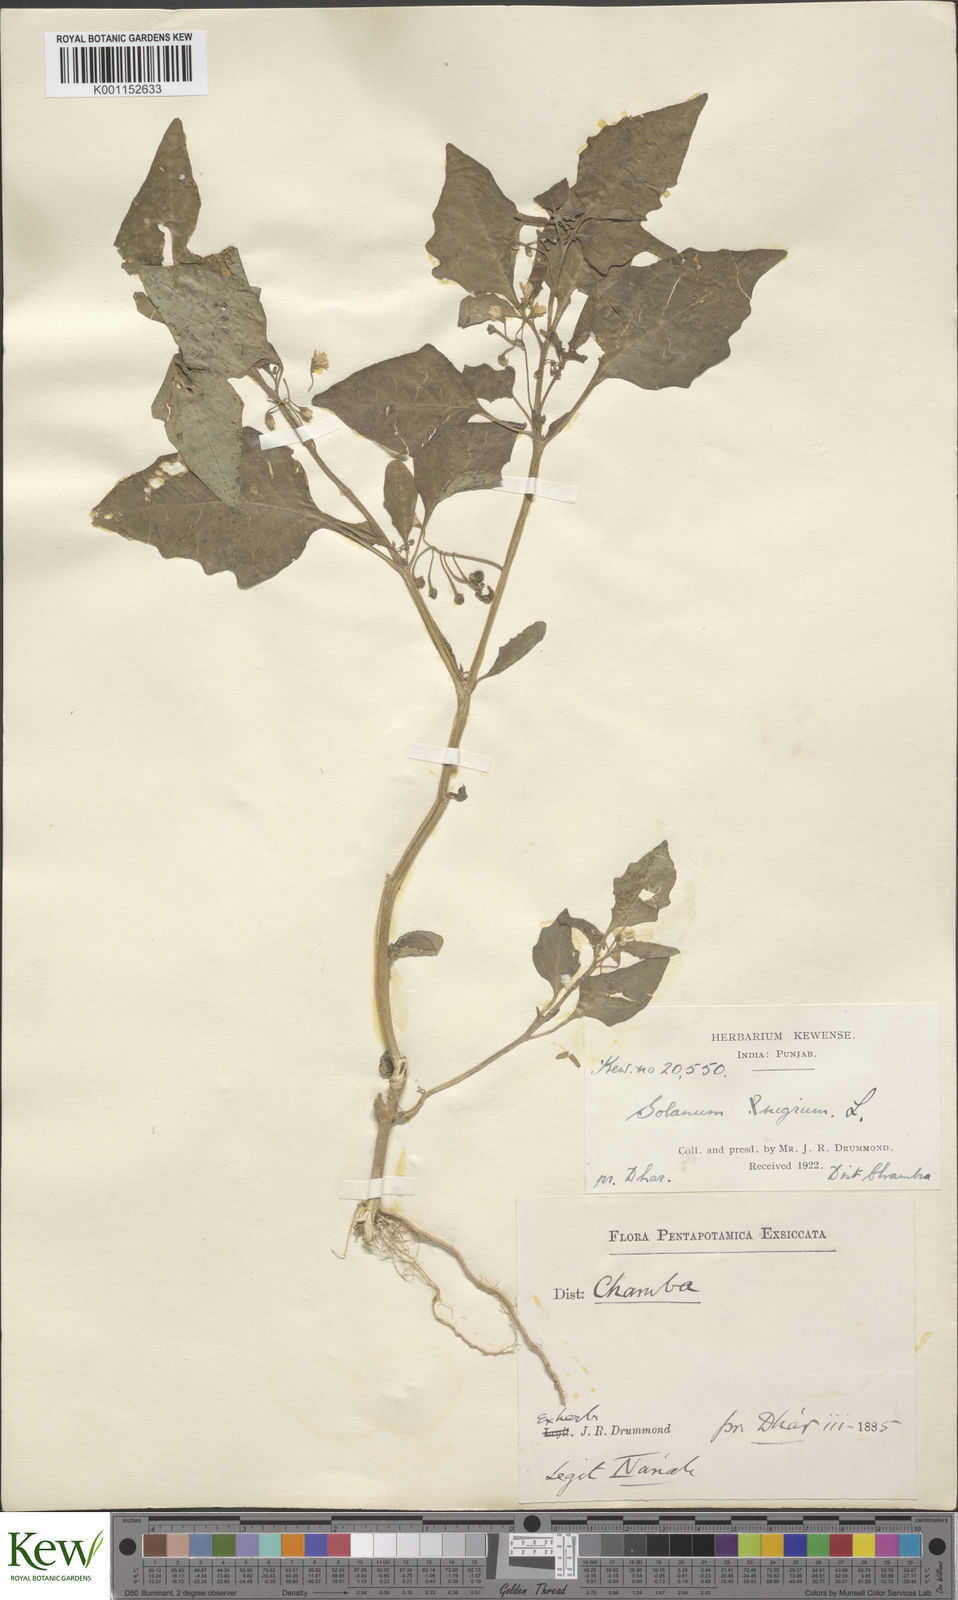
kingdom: Plantae
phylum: Tracheophyta
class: Magnoliopsida
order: Solanales
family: Solanaceae
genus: Solanum
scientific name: Solanum nigrum
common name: Black nightshade
